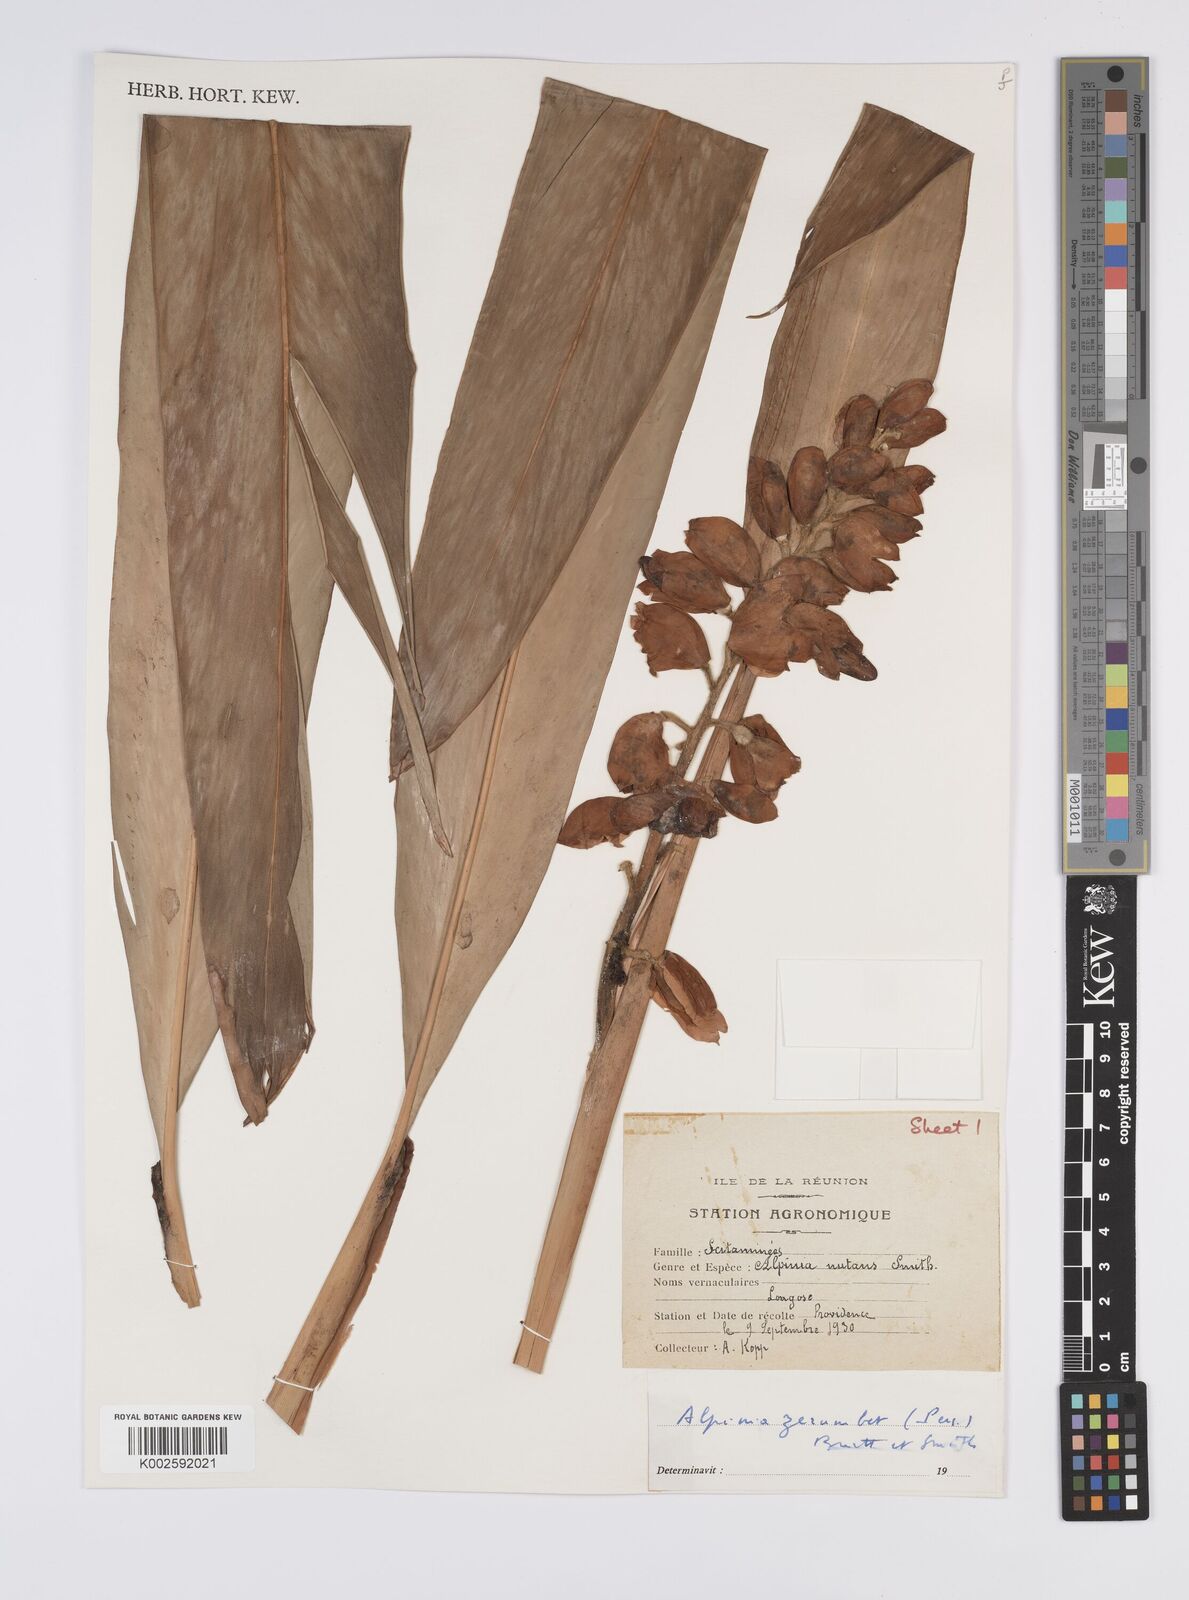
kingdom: Plantae
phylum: Tracheophyta
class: Liliopsida
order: Zingiberales
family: Zingiberaceae
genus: Alpinia
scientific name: Alpinia zerumbet
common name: Shellplant
